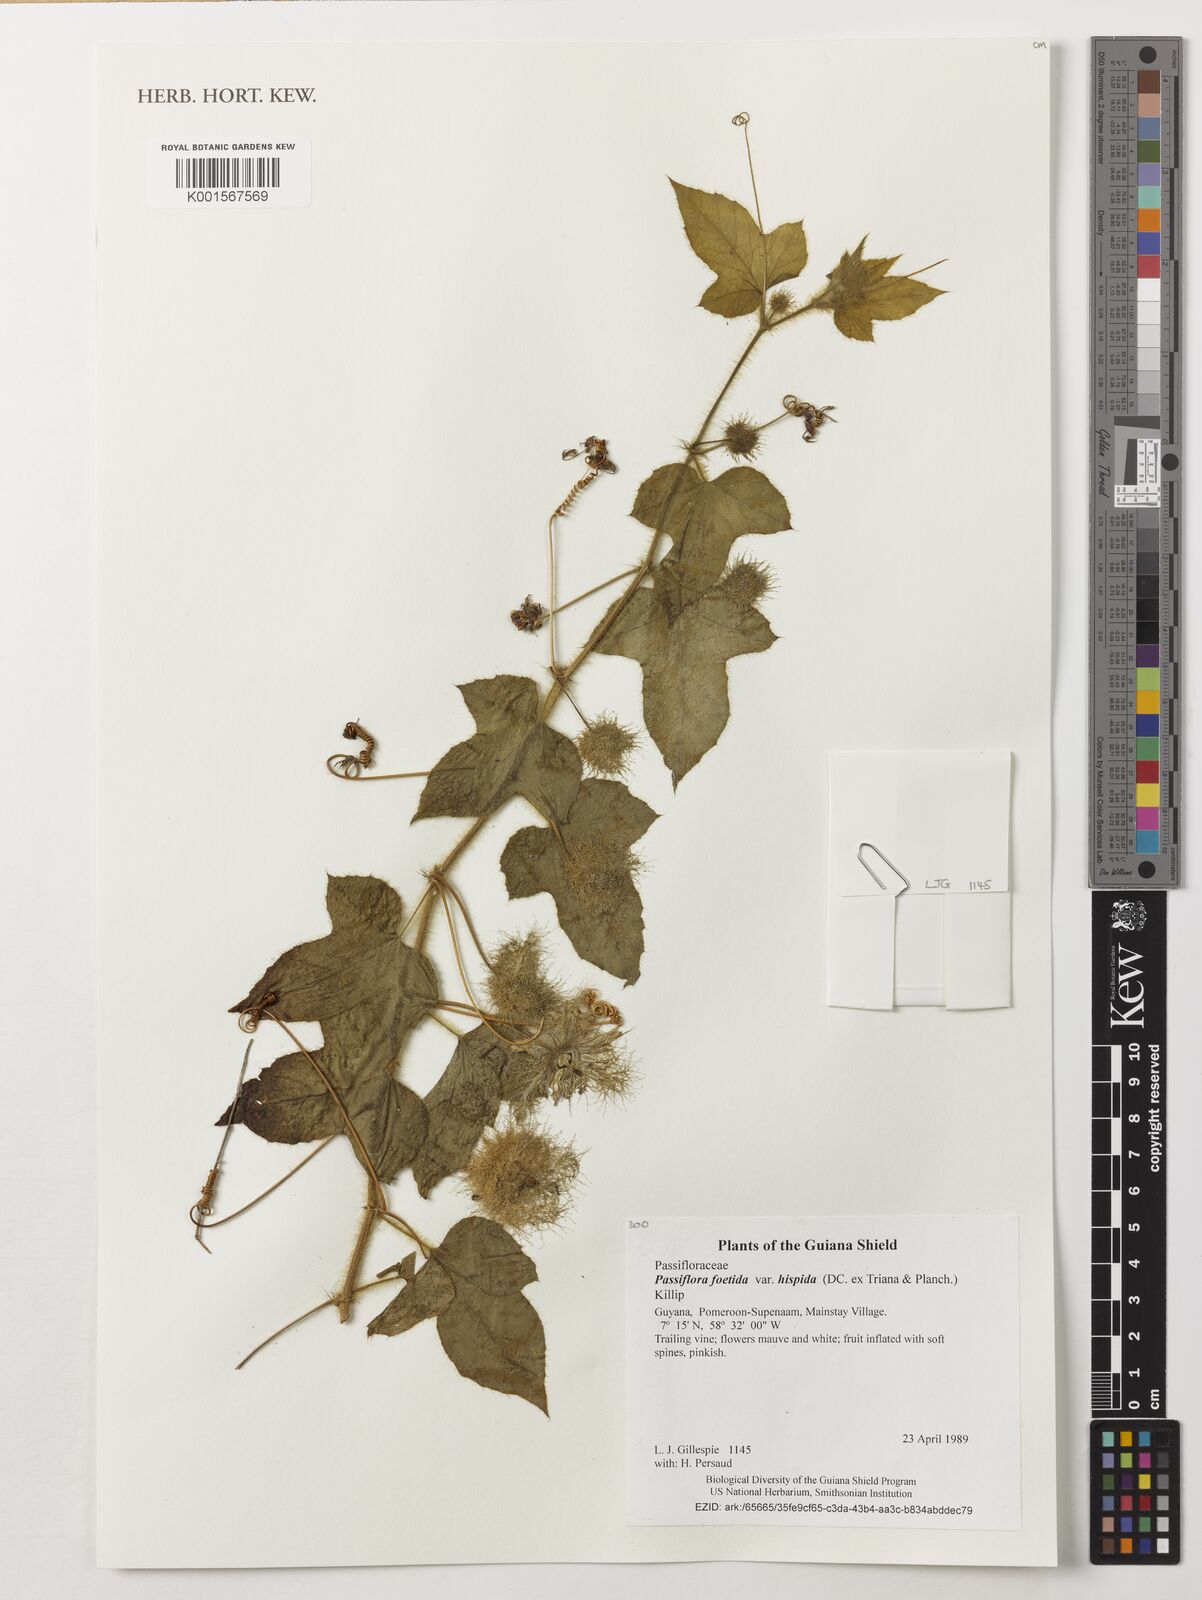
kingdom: Plantae
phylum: Tracheophyta
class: Magnoliopsida
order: Malpighiales
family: Passifloraceae
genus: Passiflora
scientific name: Passiflora vesicaria
